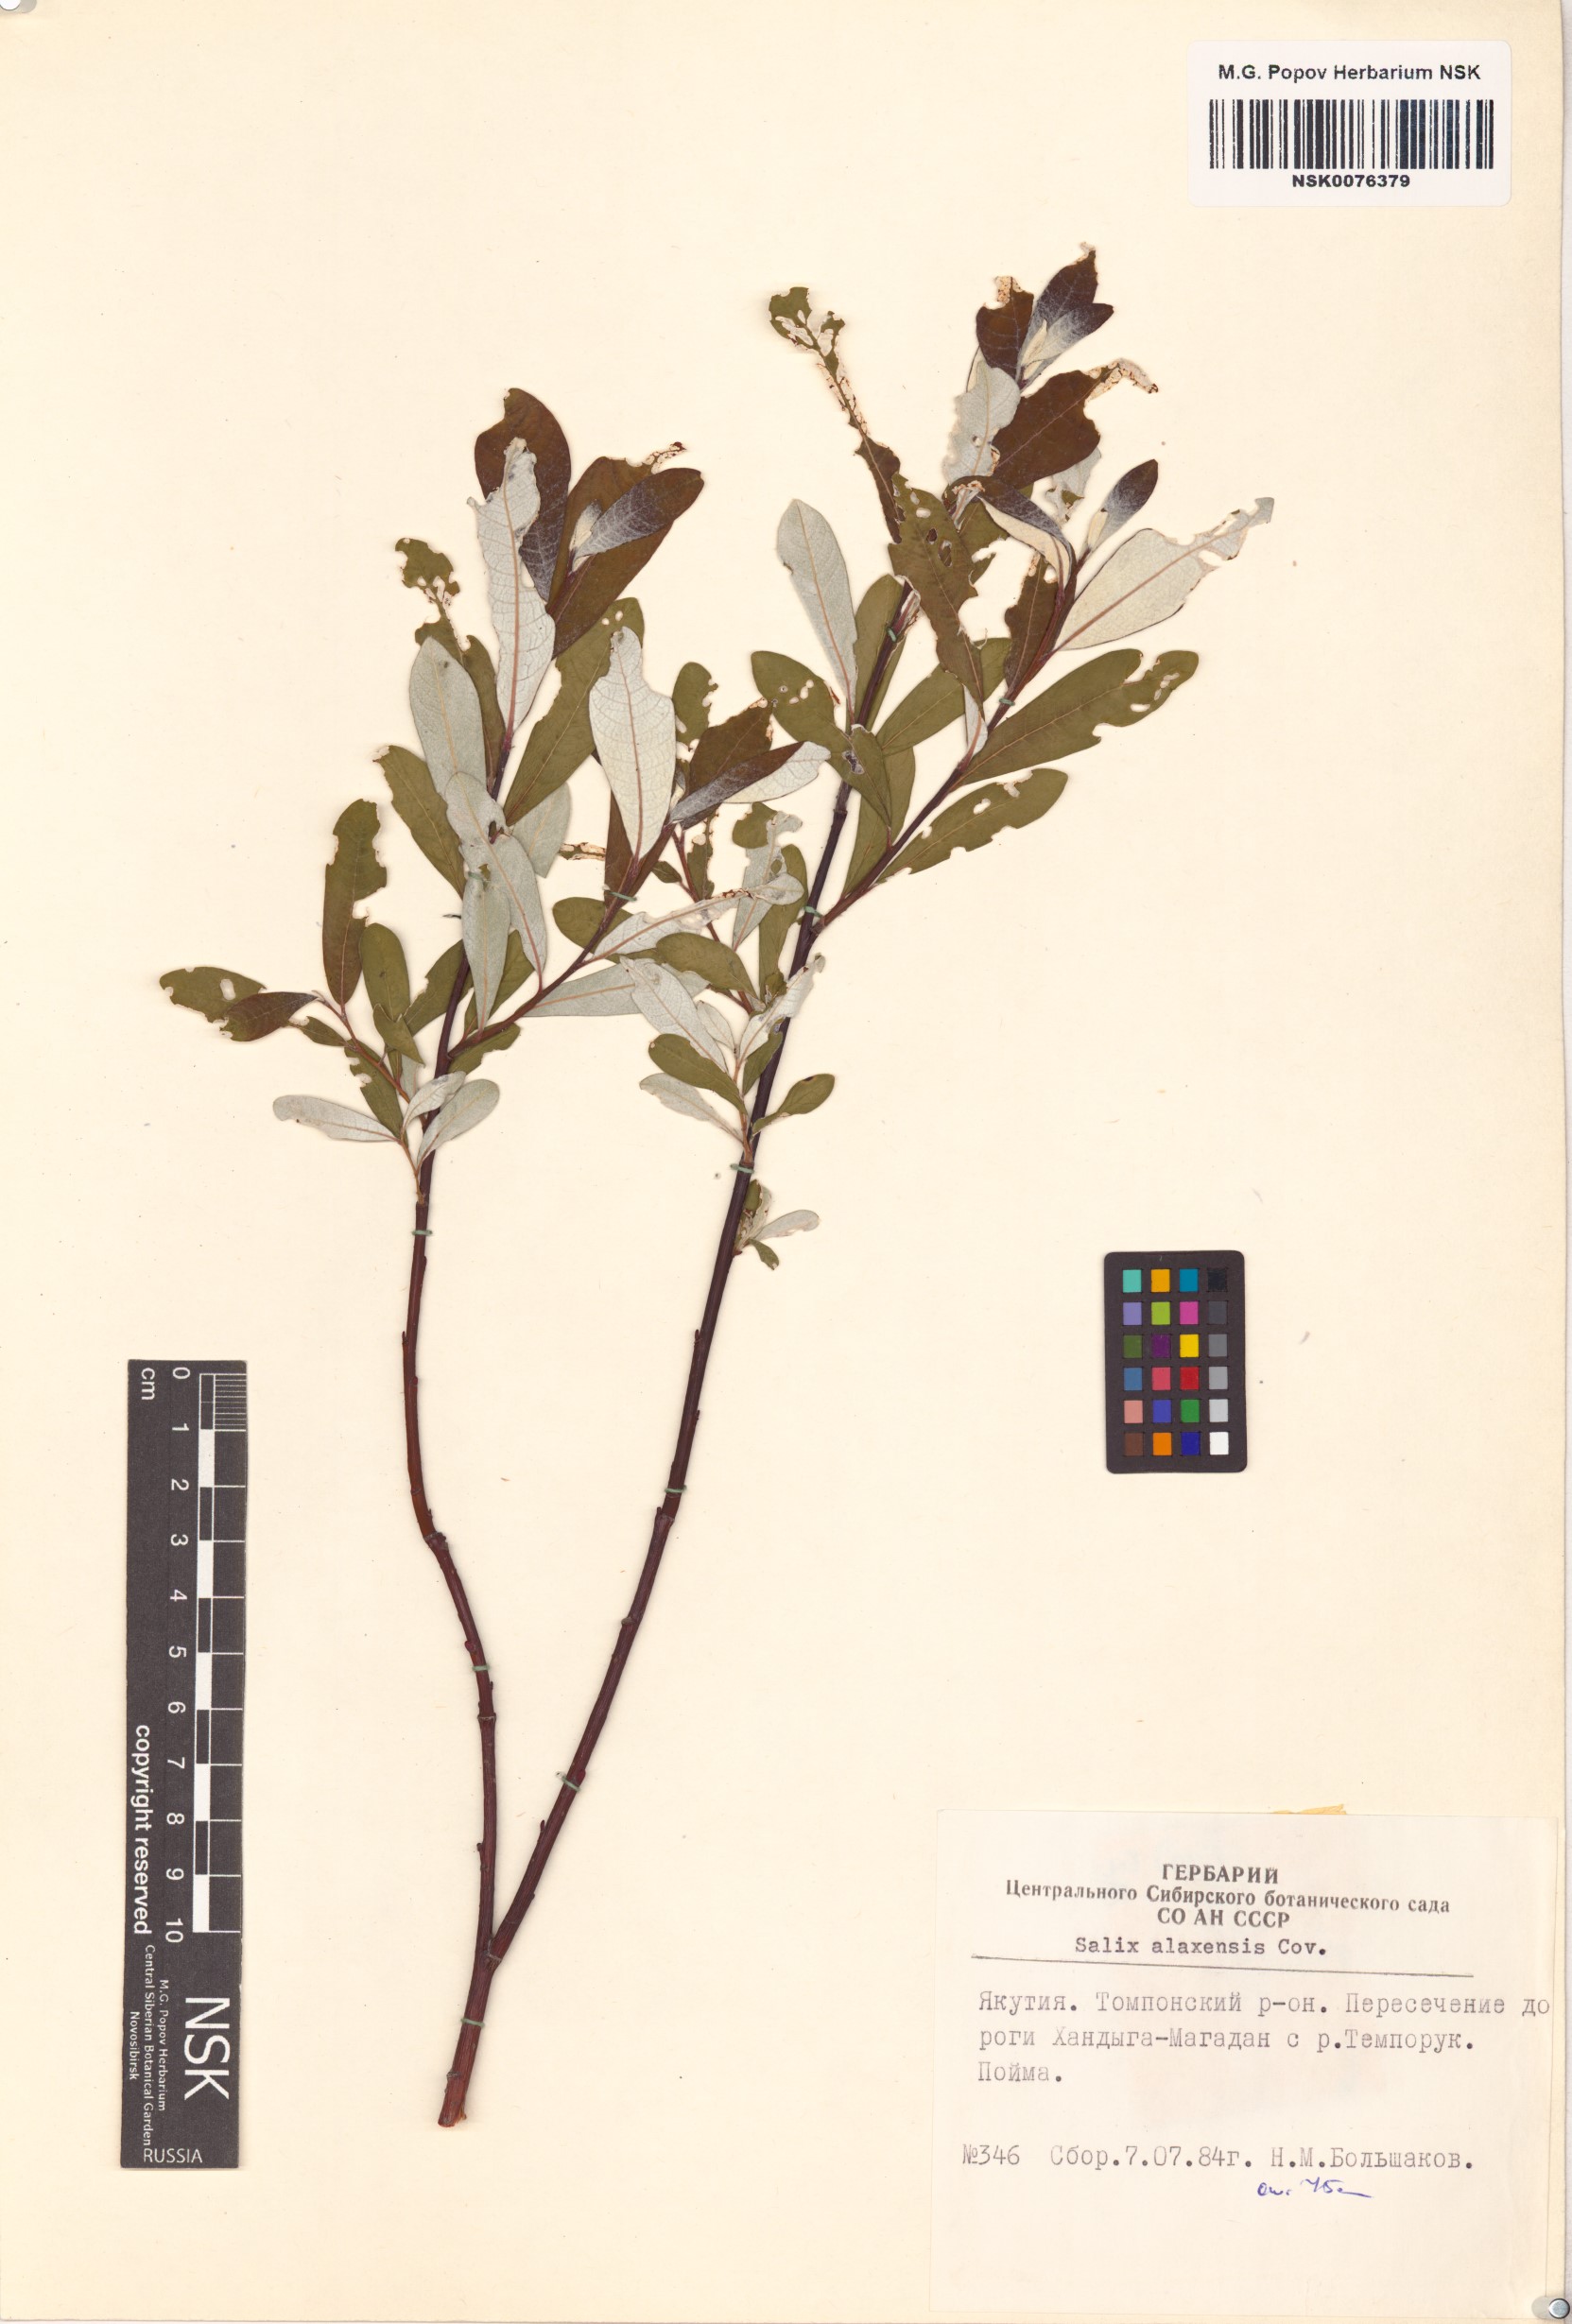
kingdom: Plantae
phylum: Tracheophyta
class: Magnoliopsida
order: Malpighiales
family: Salicaceae
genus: Salix
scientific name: Salix alaxensis
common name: Feltleaf willow
